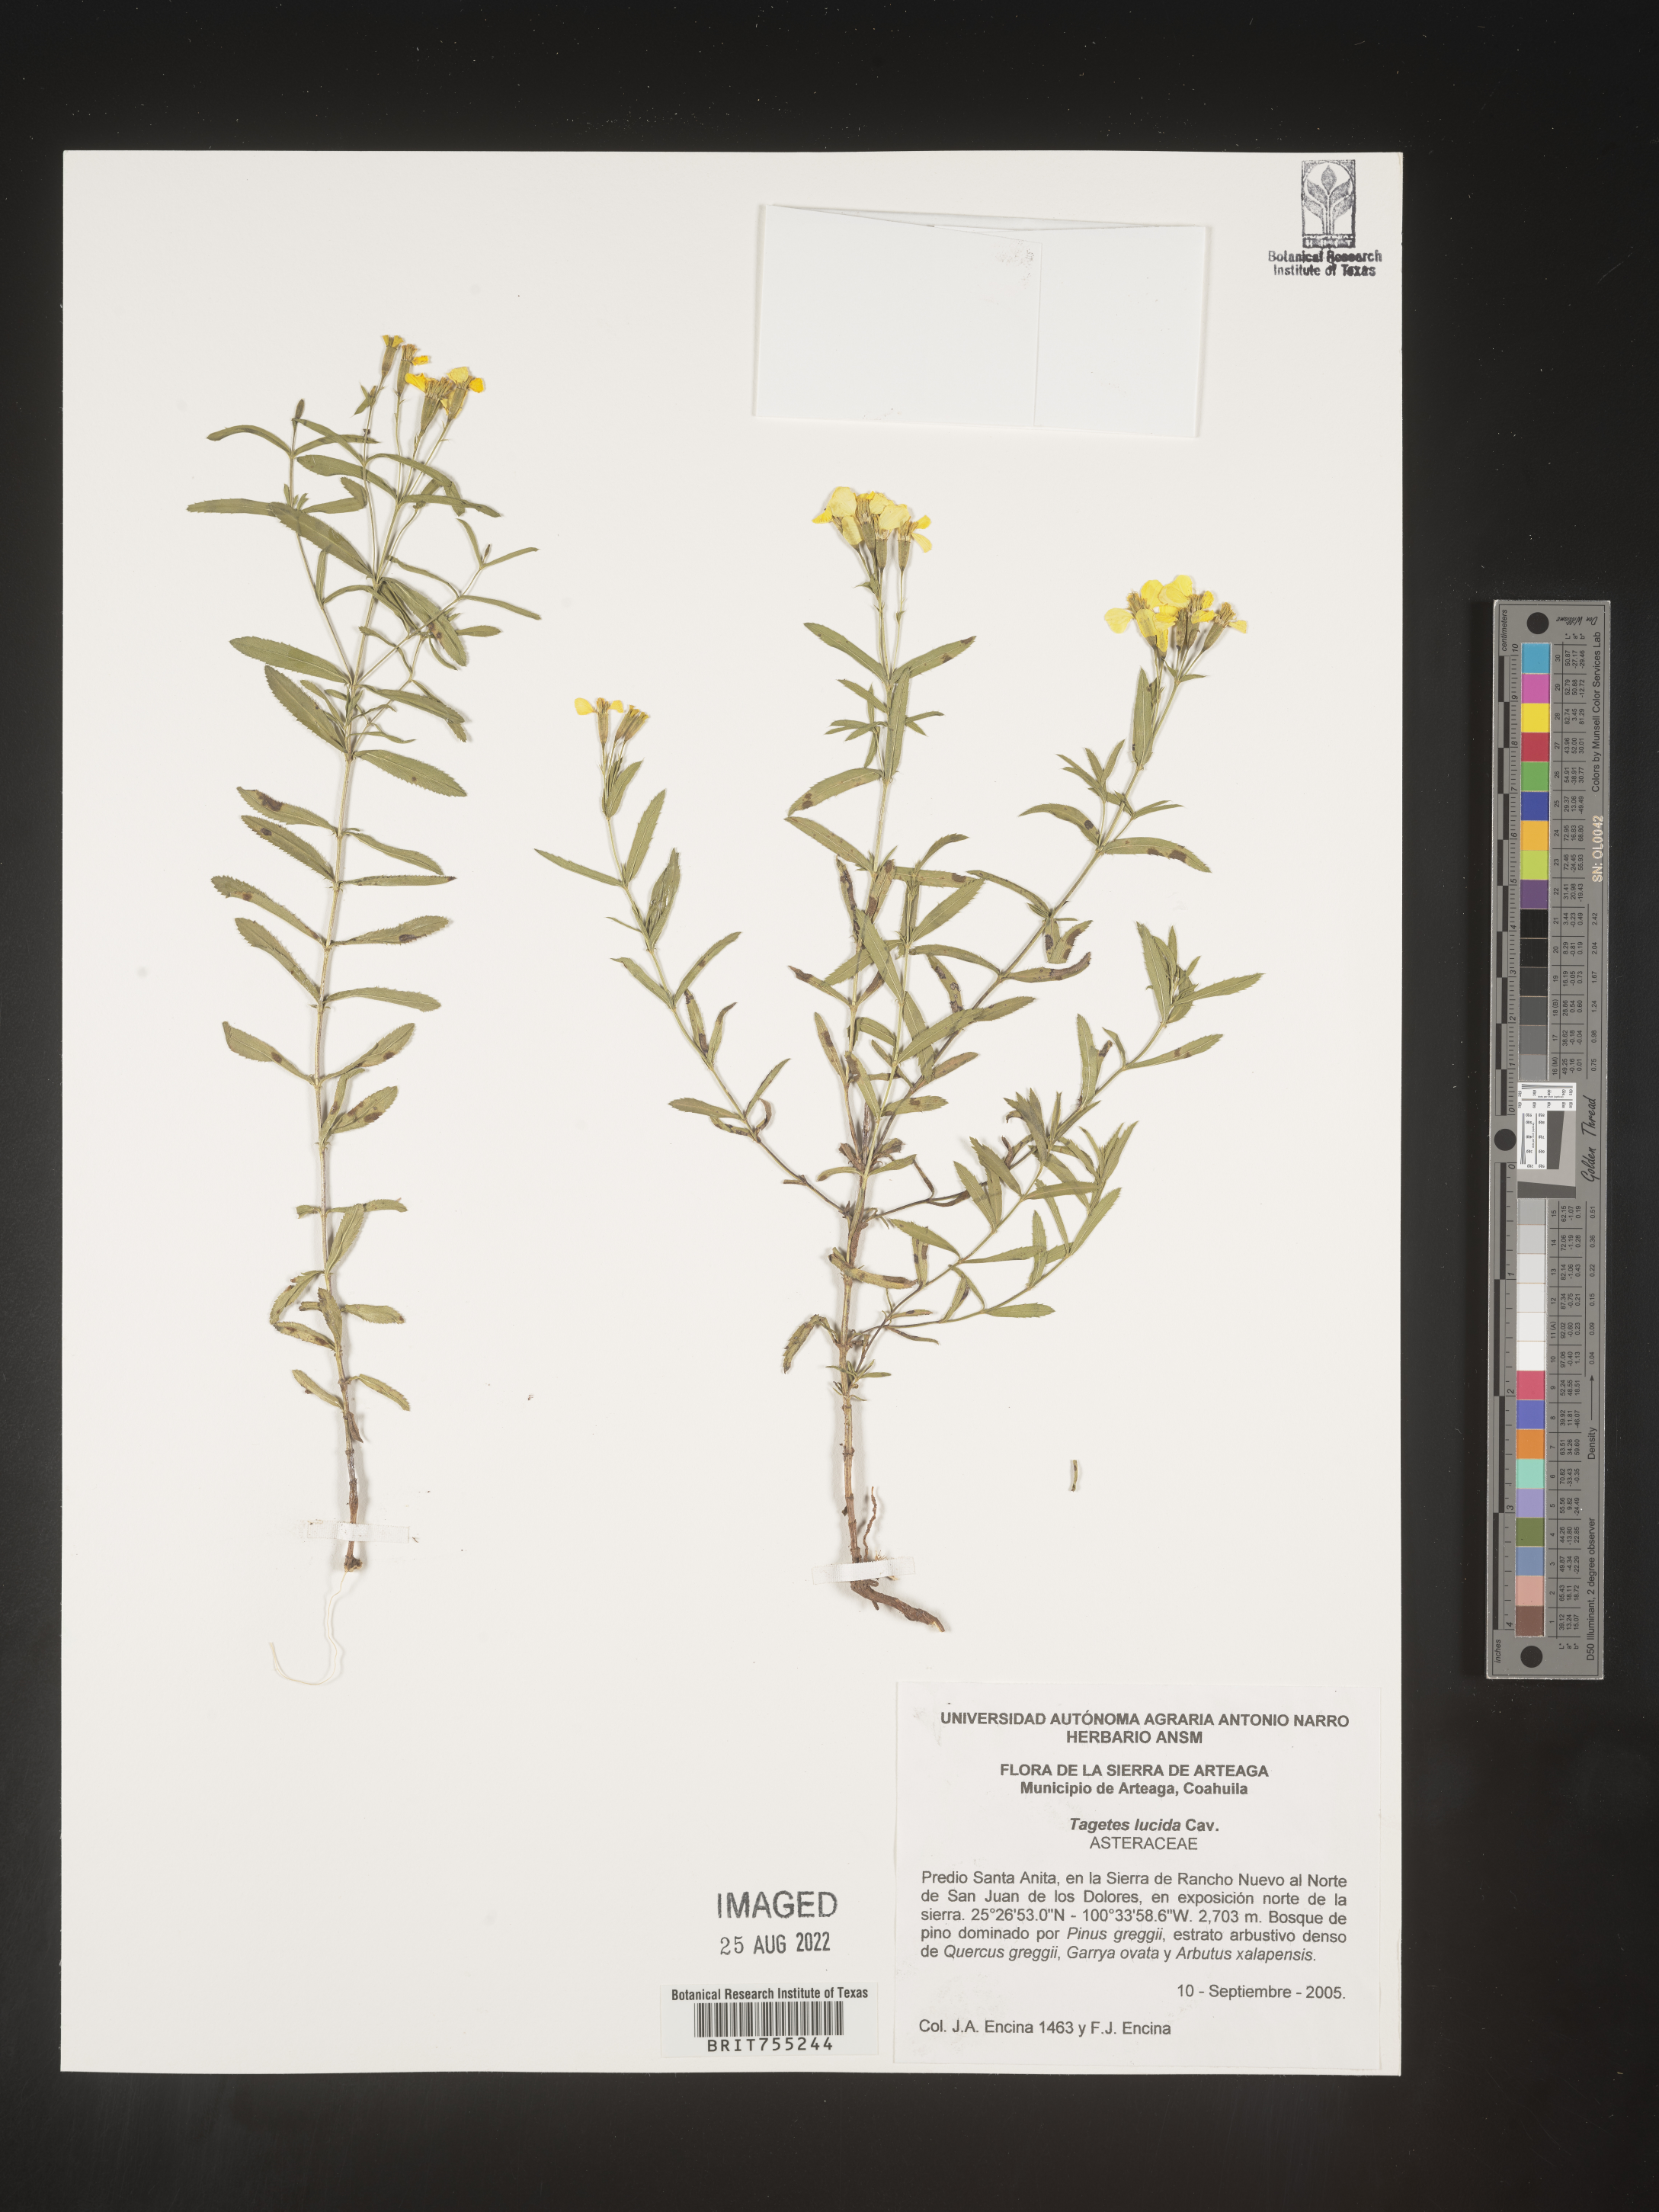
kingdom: Plantae
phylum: Tracheophyta
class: Magnoliopsida
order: Asterales
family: Asteraceae
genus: Tagetes
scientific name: Tagetes lucida
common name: Sweetscented marigold
